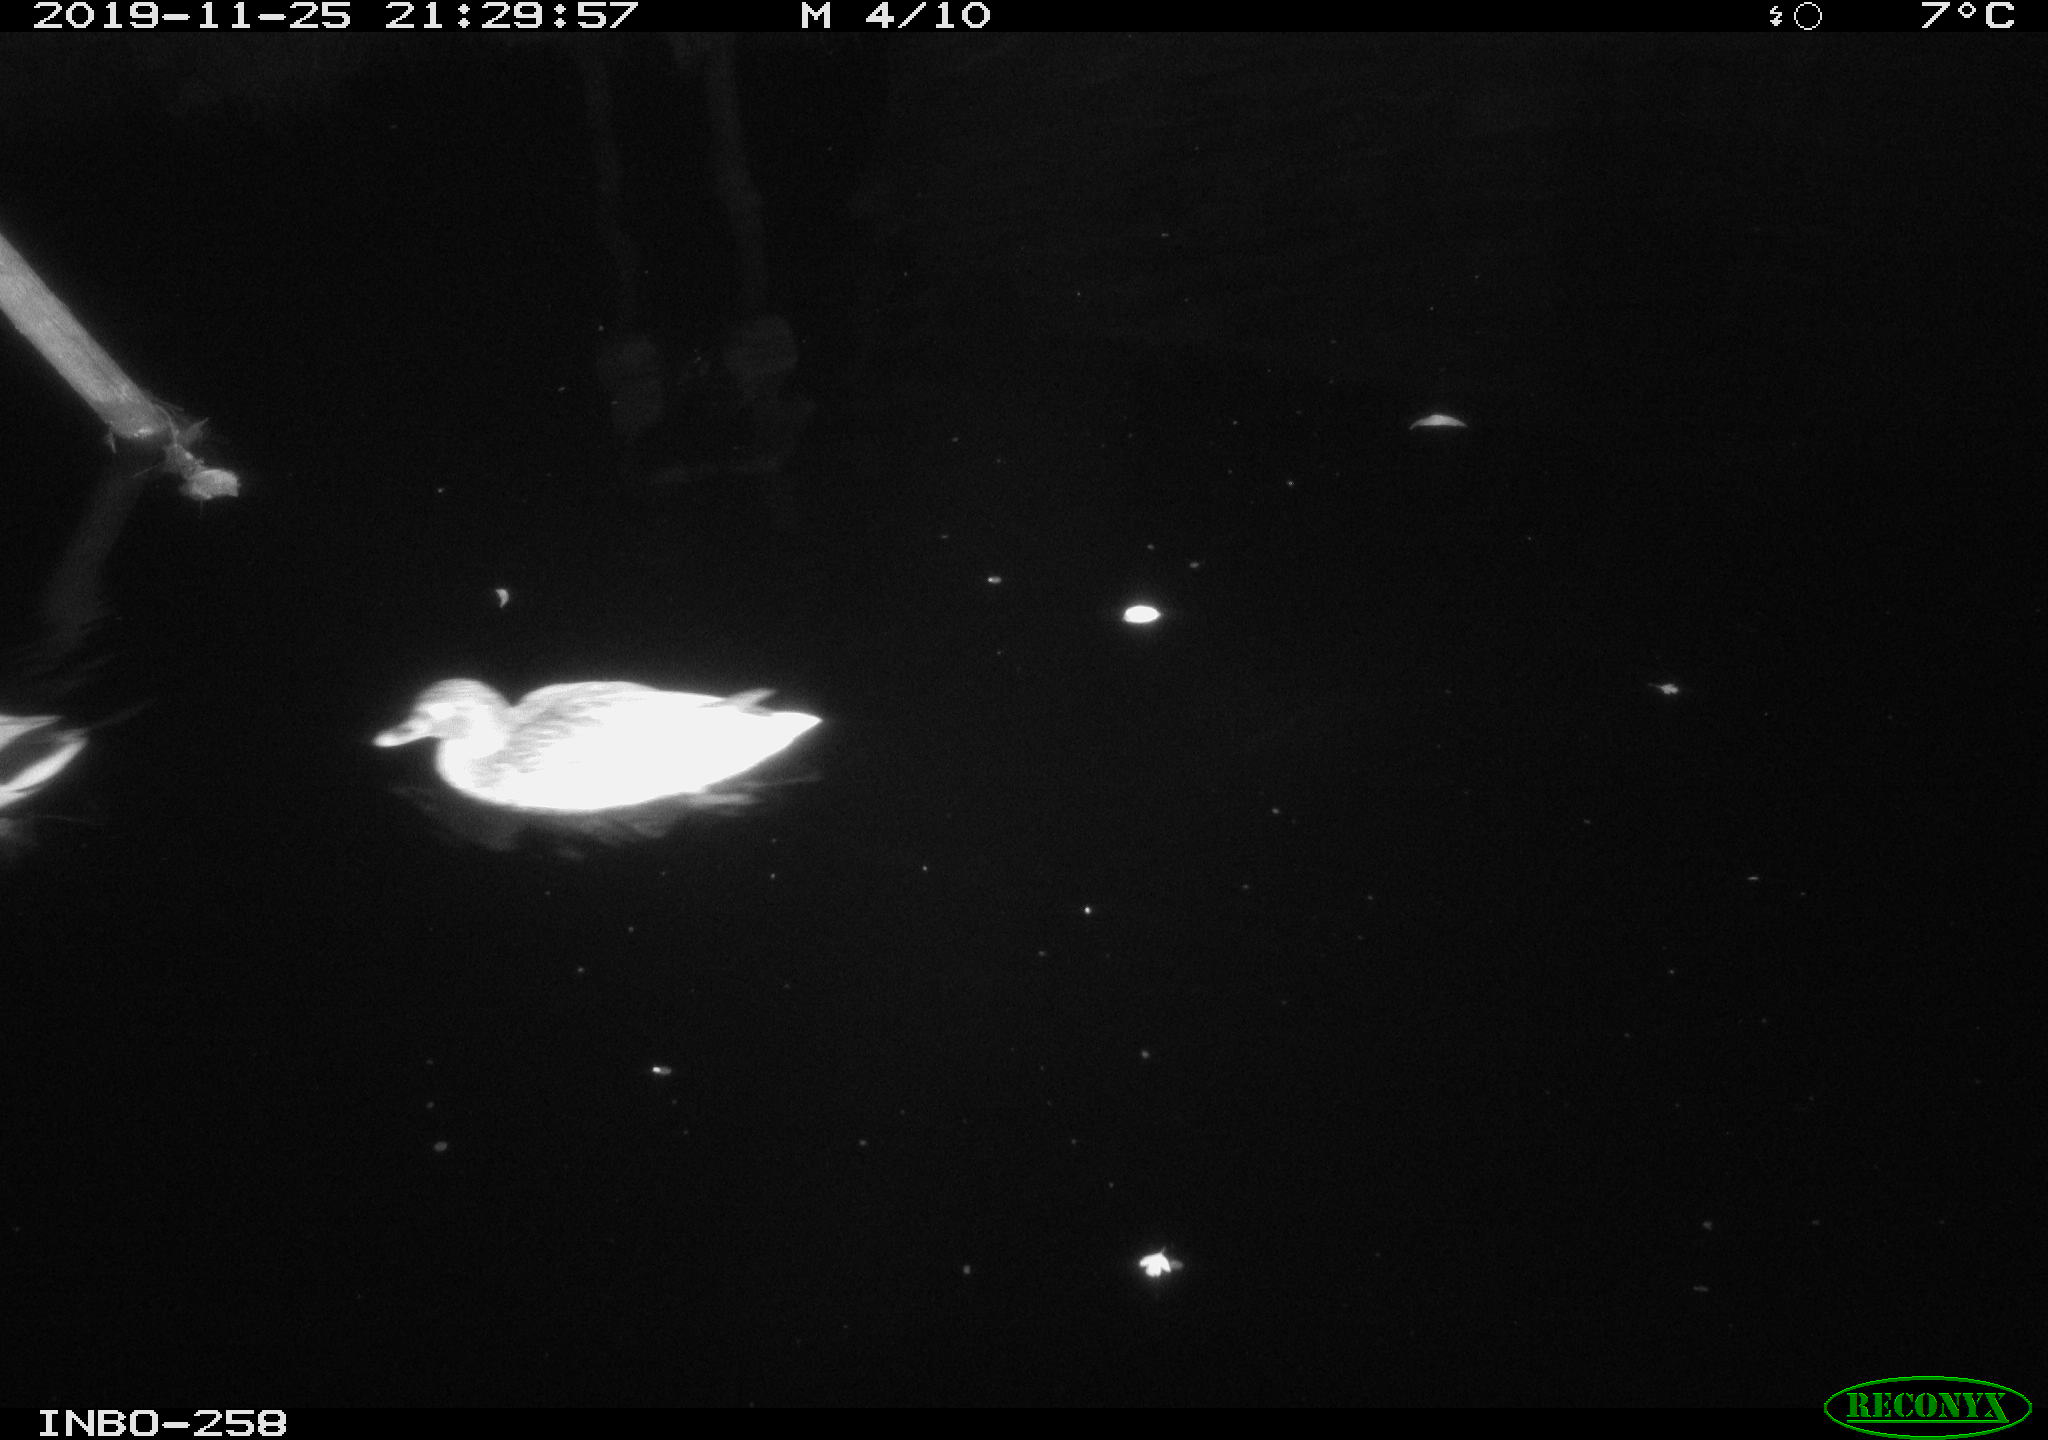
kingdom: Animalia
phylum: Chordata
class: Aves
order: Anseriformes
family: Anatidae
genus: Anas
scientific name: Anas platyrhynchos
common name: Mallard
